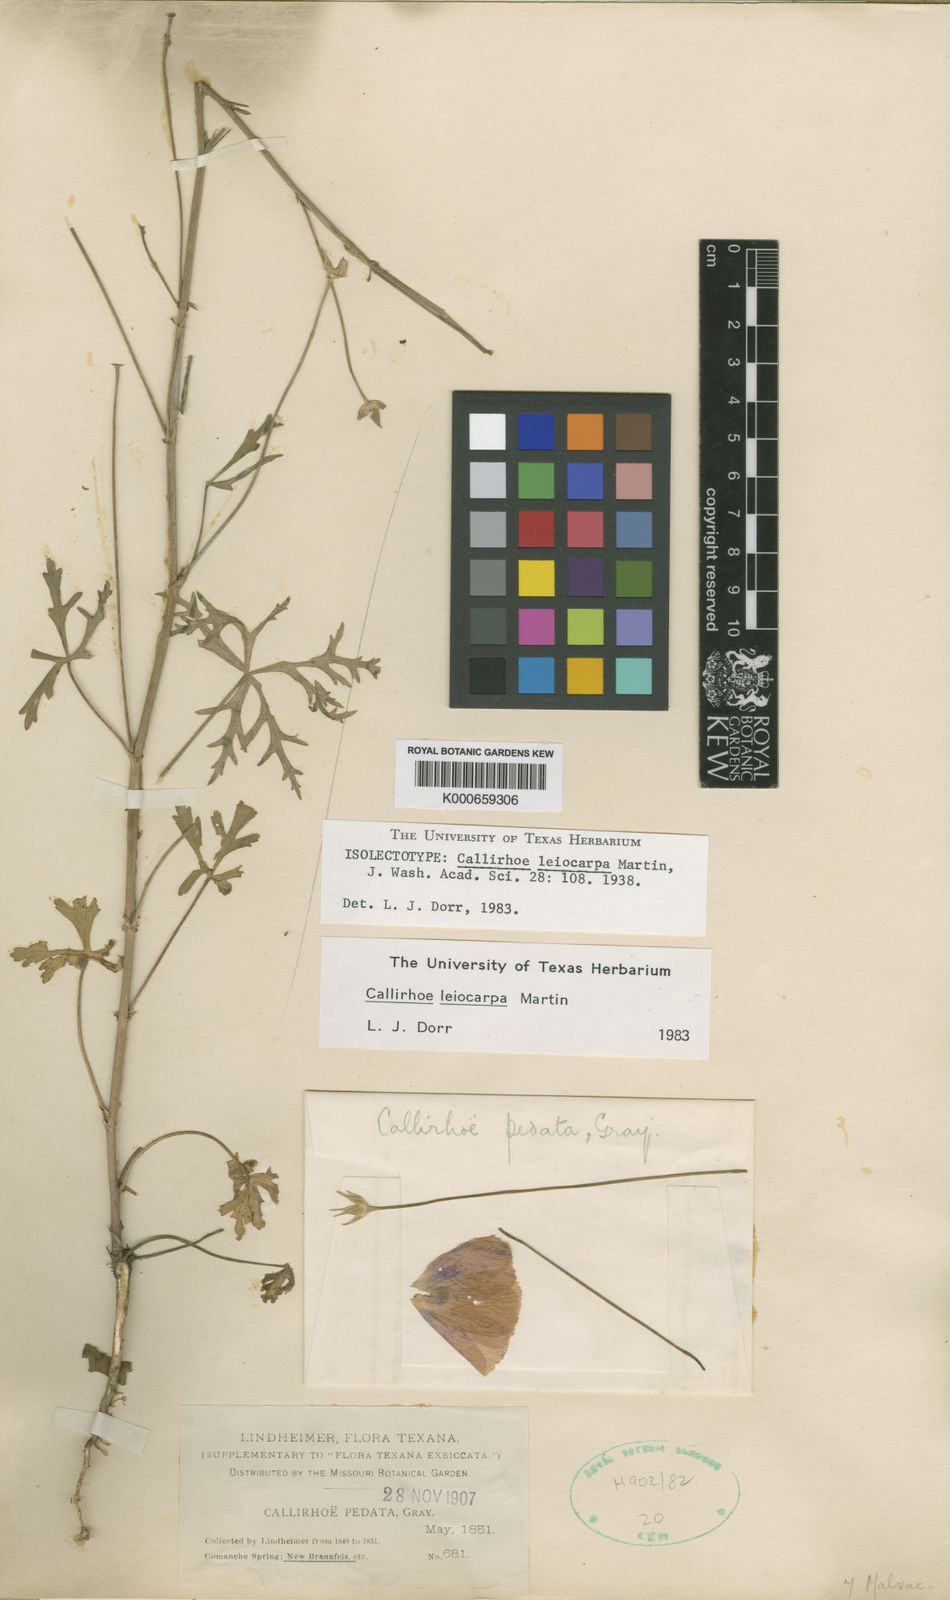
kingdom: Plantae
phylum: Tracheophyta
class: Magnoliopsida
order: Malvales
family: Malvaceae
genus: Callirhoe
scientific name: Callirhoe leiocarpa
